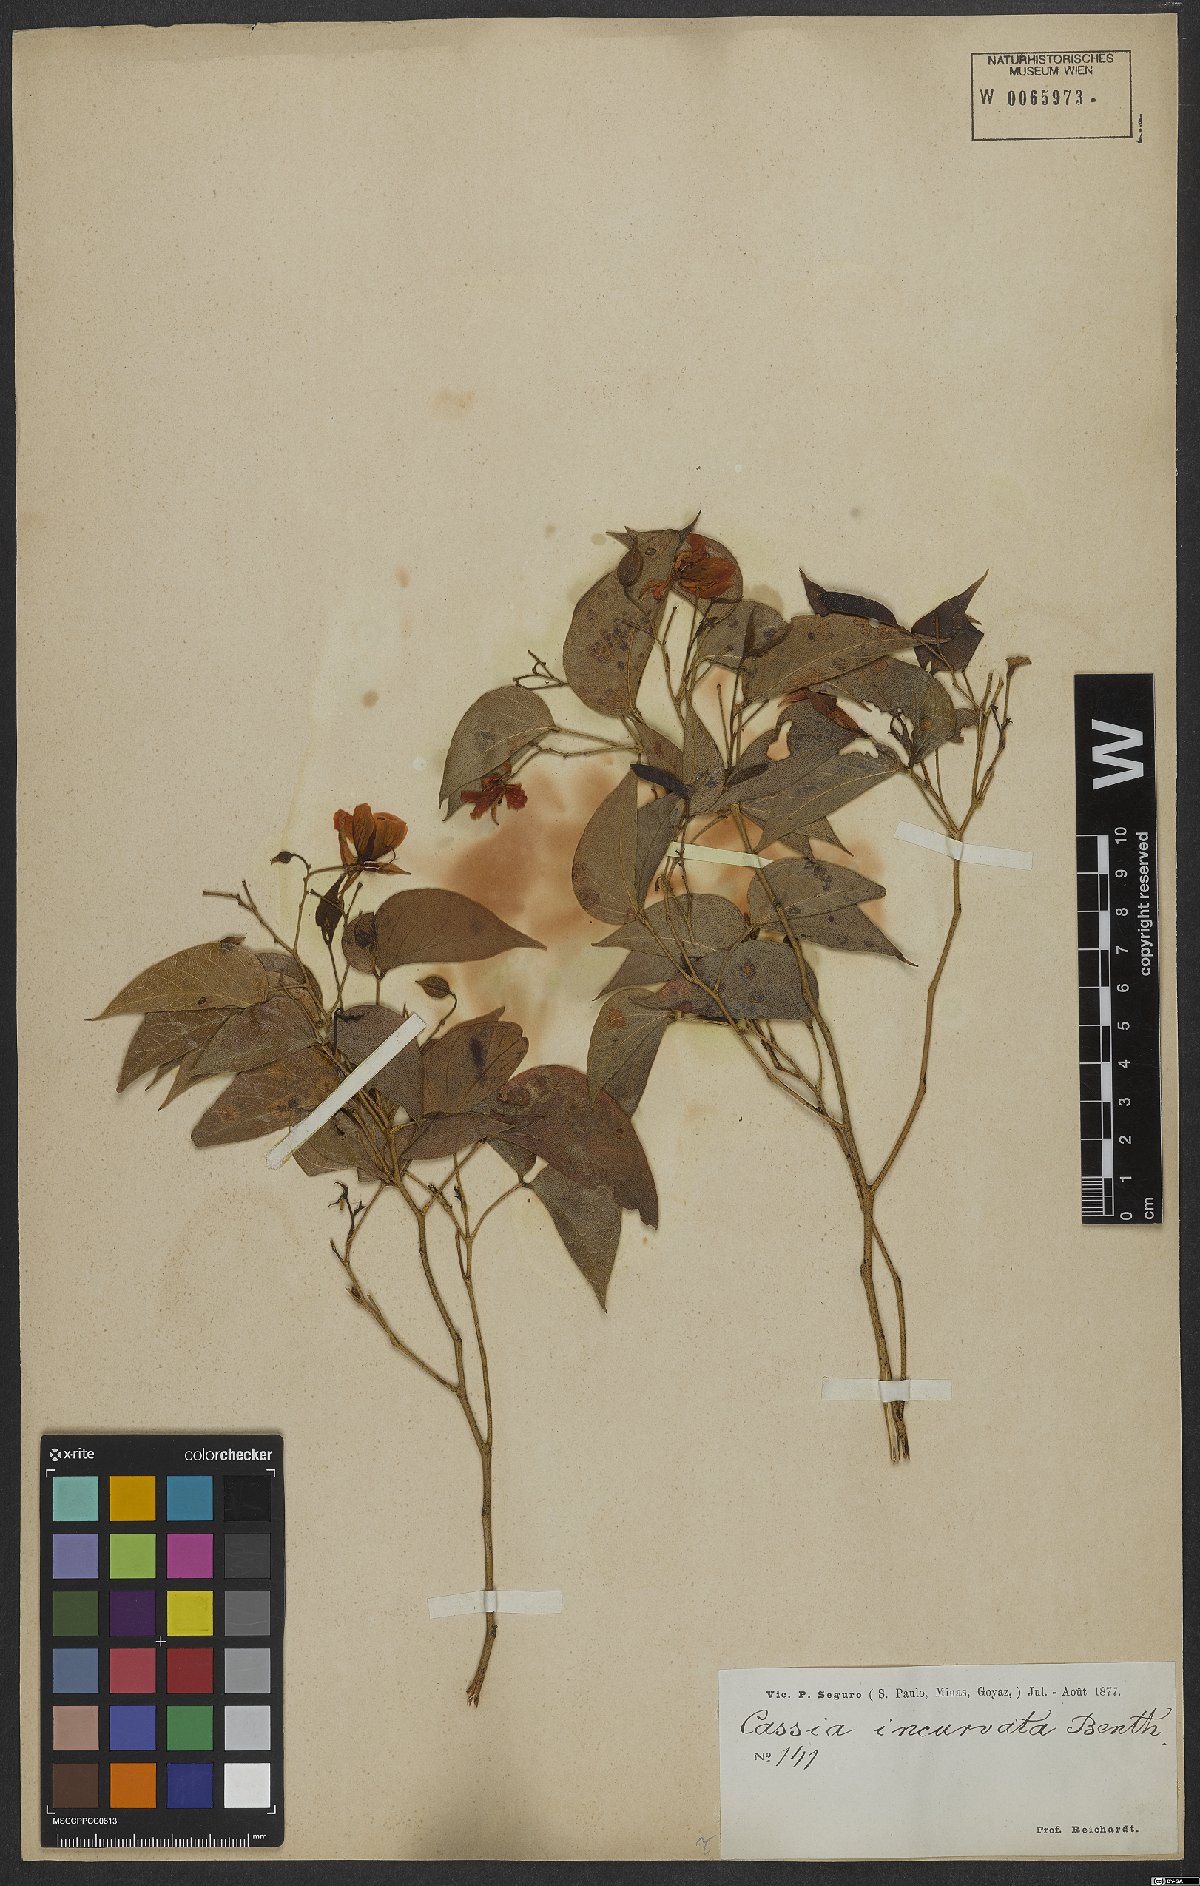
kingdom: Plantae
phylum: Tracheophyta
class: Magnoliopsida
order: Fabales
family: Fabaceae
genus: Chamaecrista
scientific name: Chamaecrista incurvata
